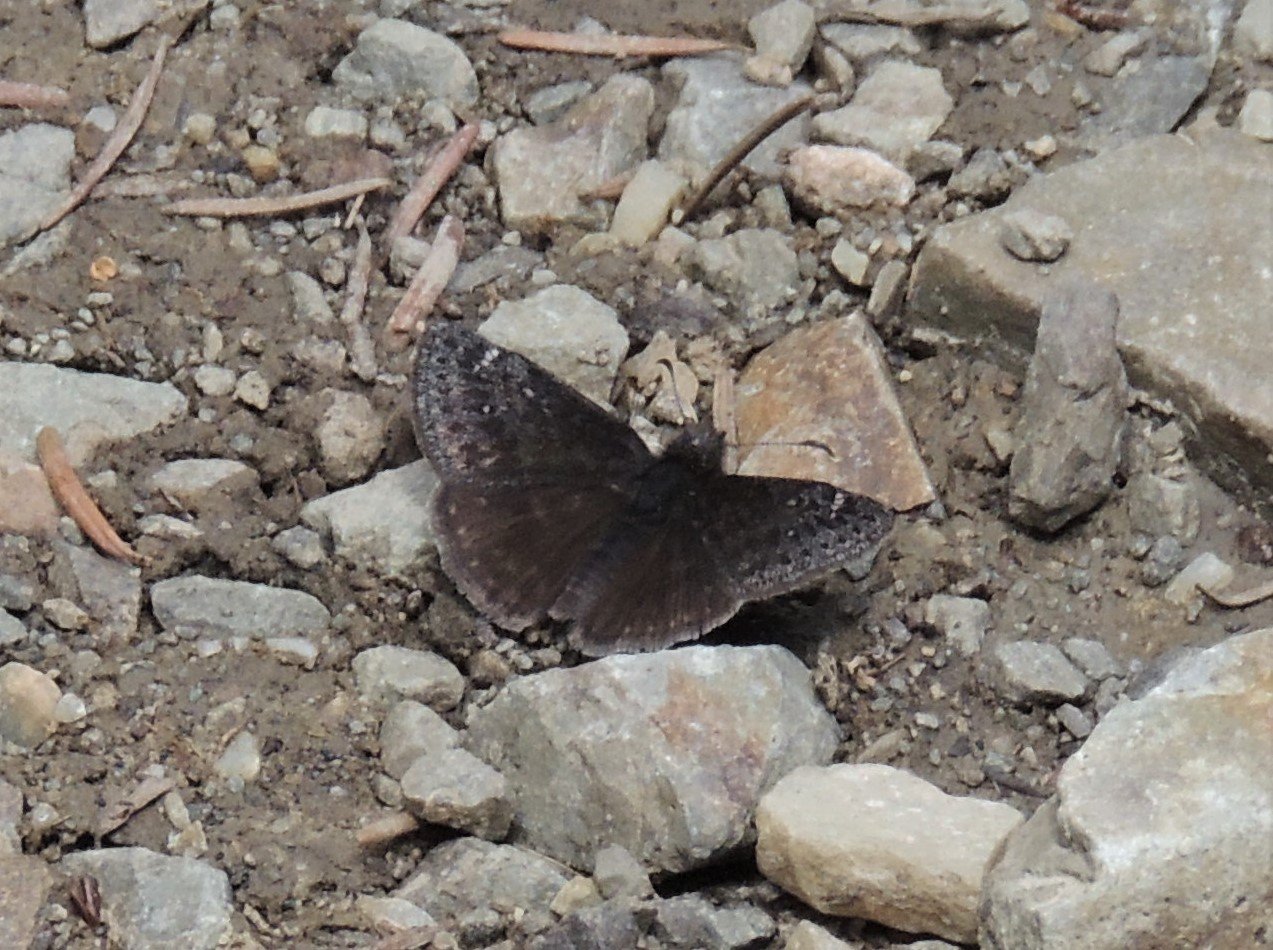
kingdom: Animalia
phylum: Arthropoda
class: Insecta
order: Lepidoptera
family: Hesperiidae
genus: Gesta
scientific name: Gesta
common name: Persius Duskywing
